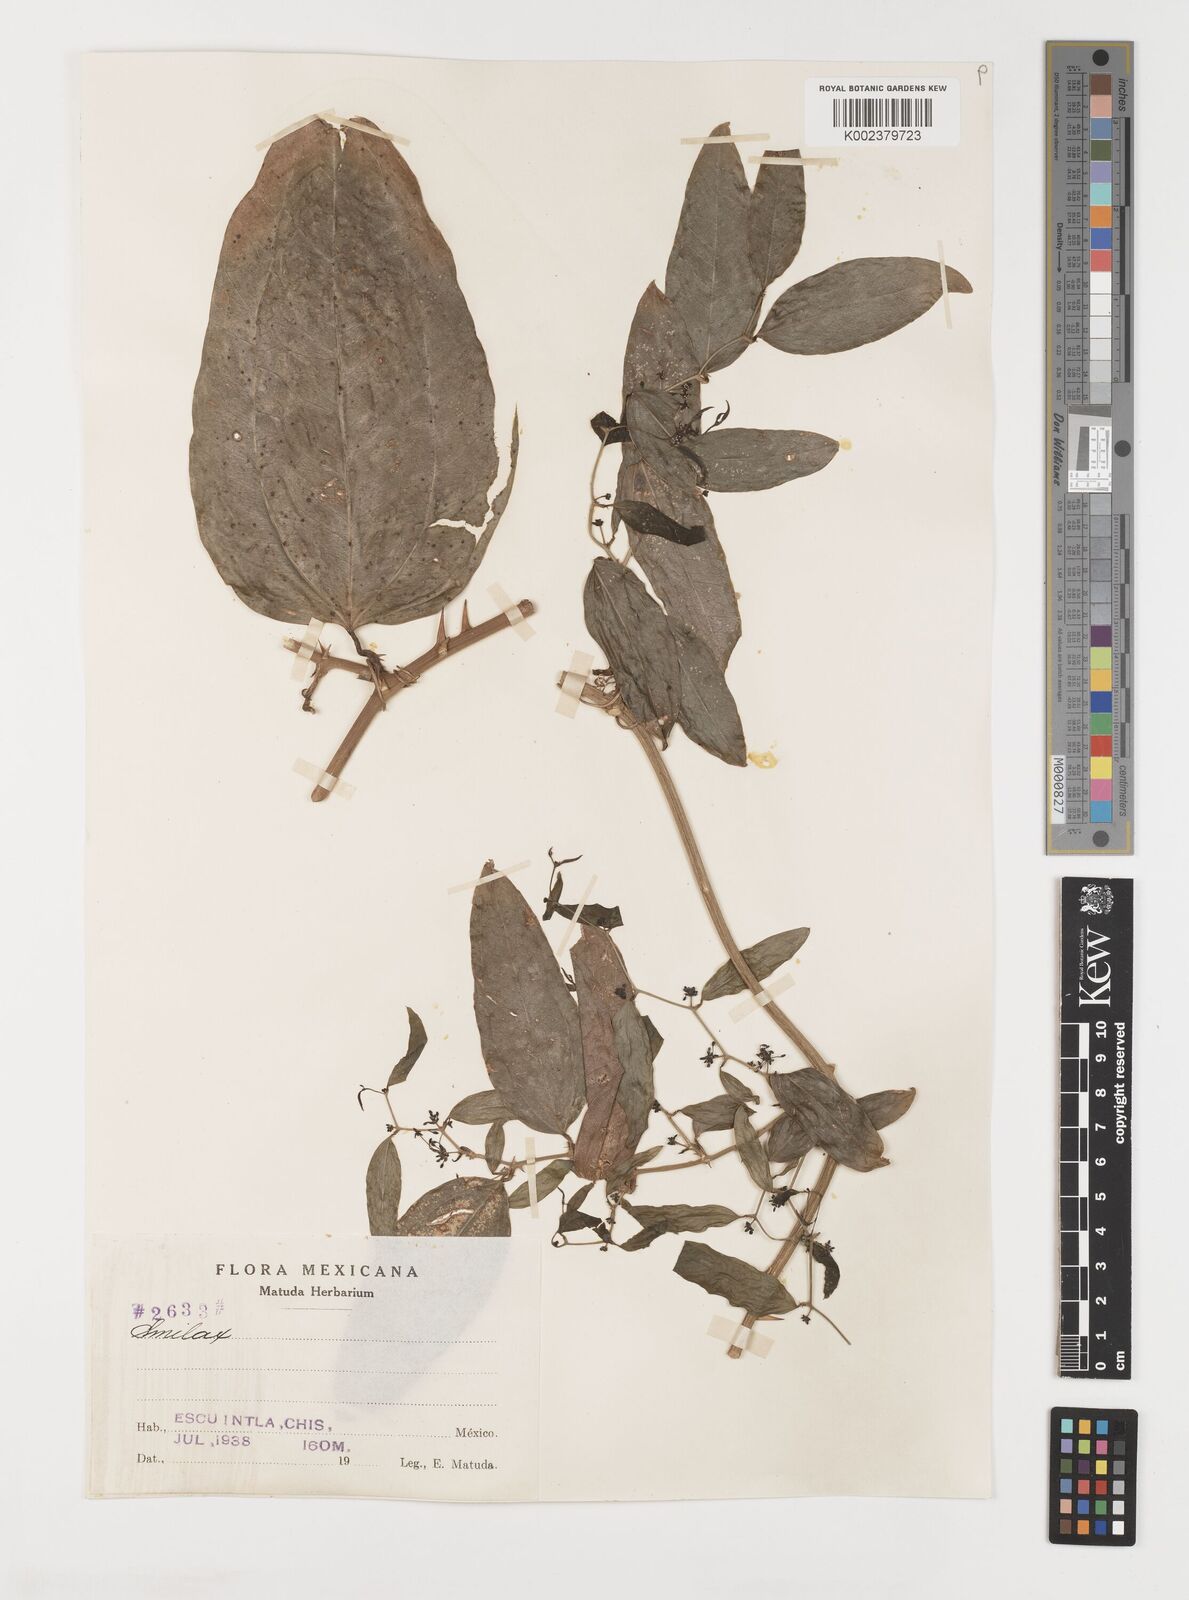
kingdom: Plantae
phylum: Tracheophyta
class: Liliopsida
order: Liliales
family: Smilacaceae
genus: Smilax
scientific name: Smilax
